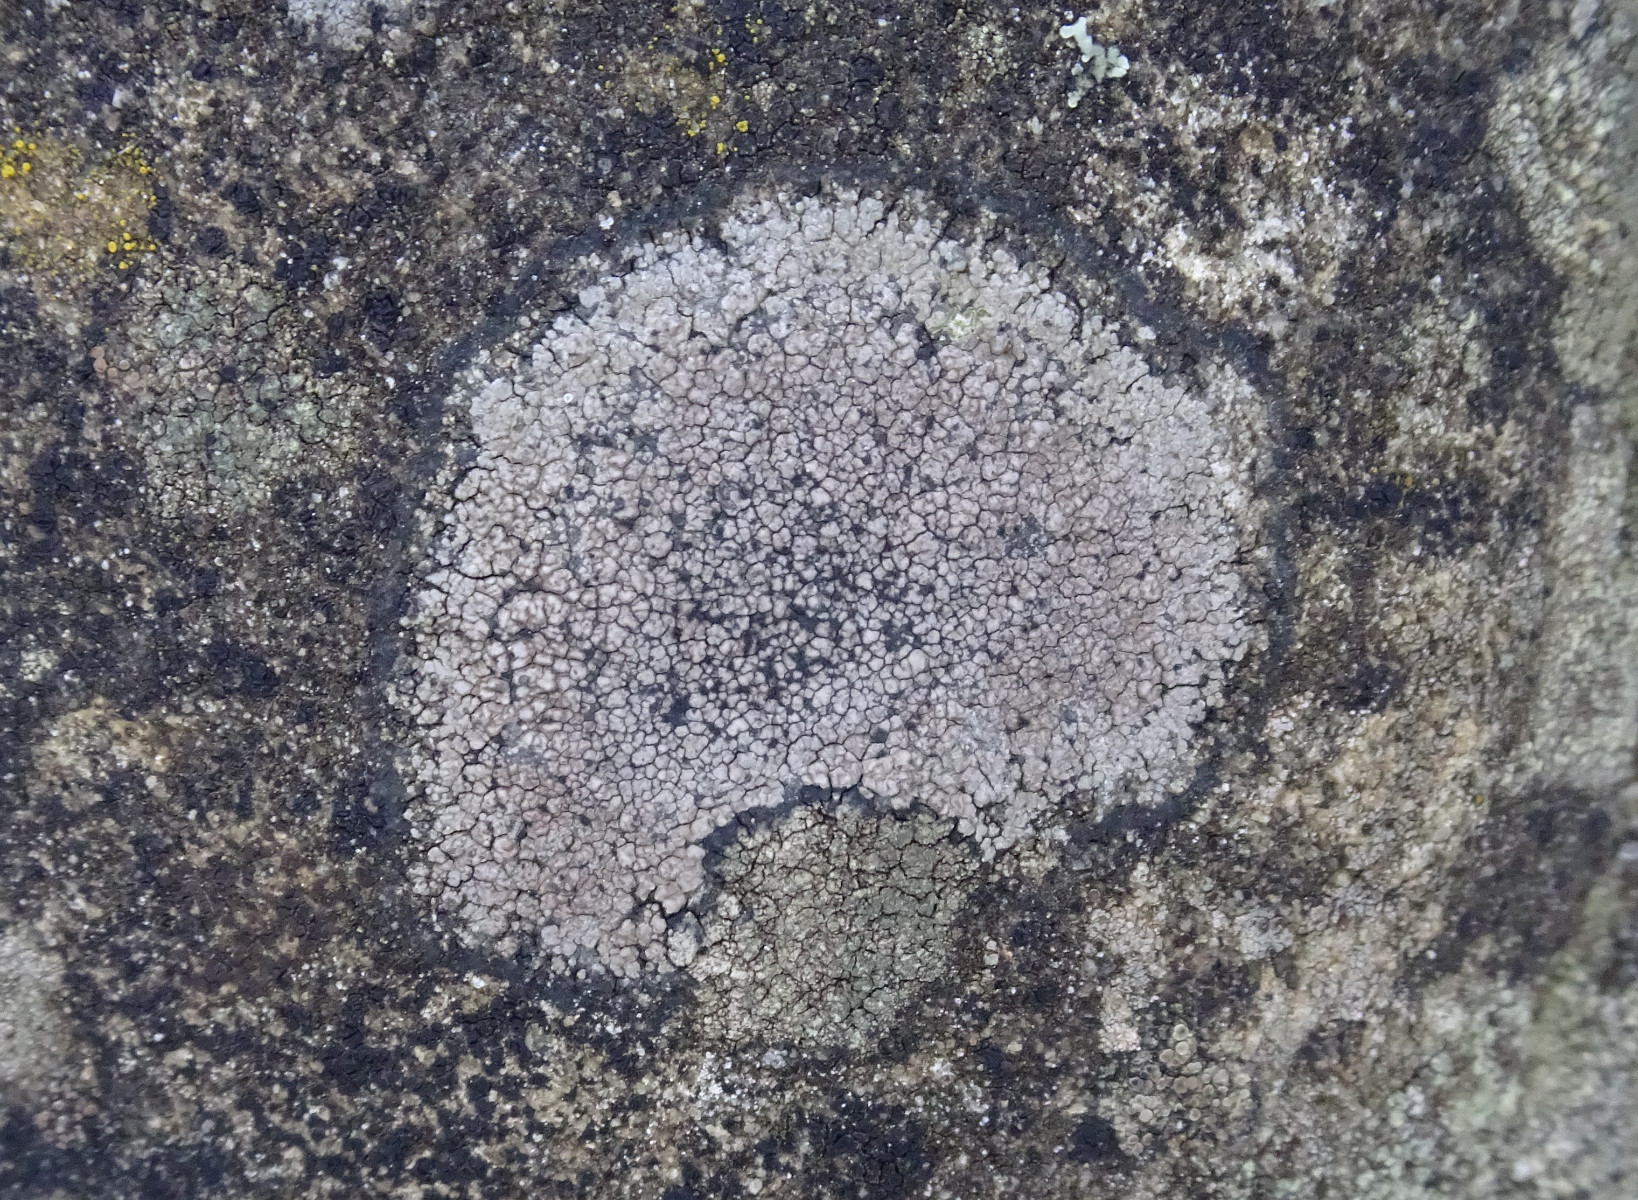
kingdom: Fungi
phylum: Ascomycota
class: Lecanoromycetes
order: Lecideales
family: Lecideaceae
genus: Lecidea
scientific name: Lecidea fuscoatra
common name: rudret skivelav
